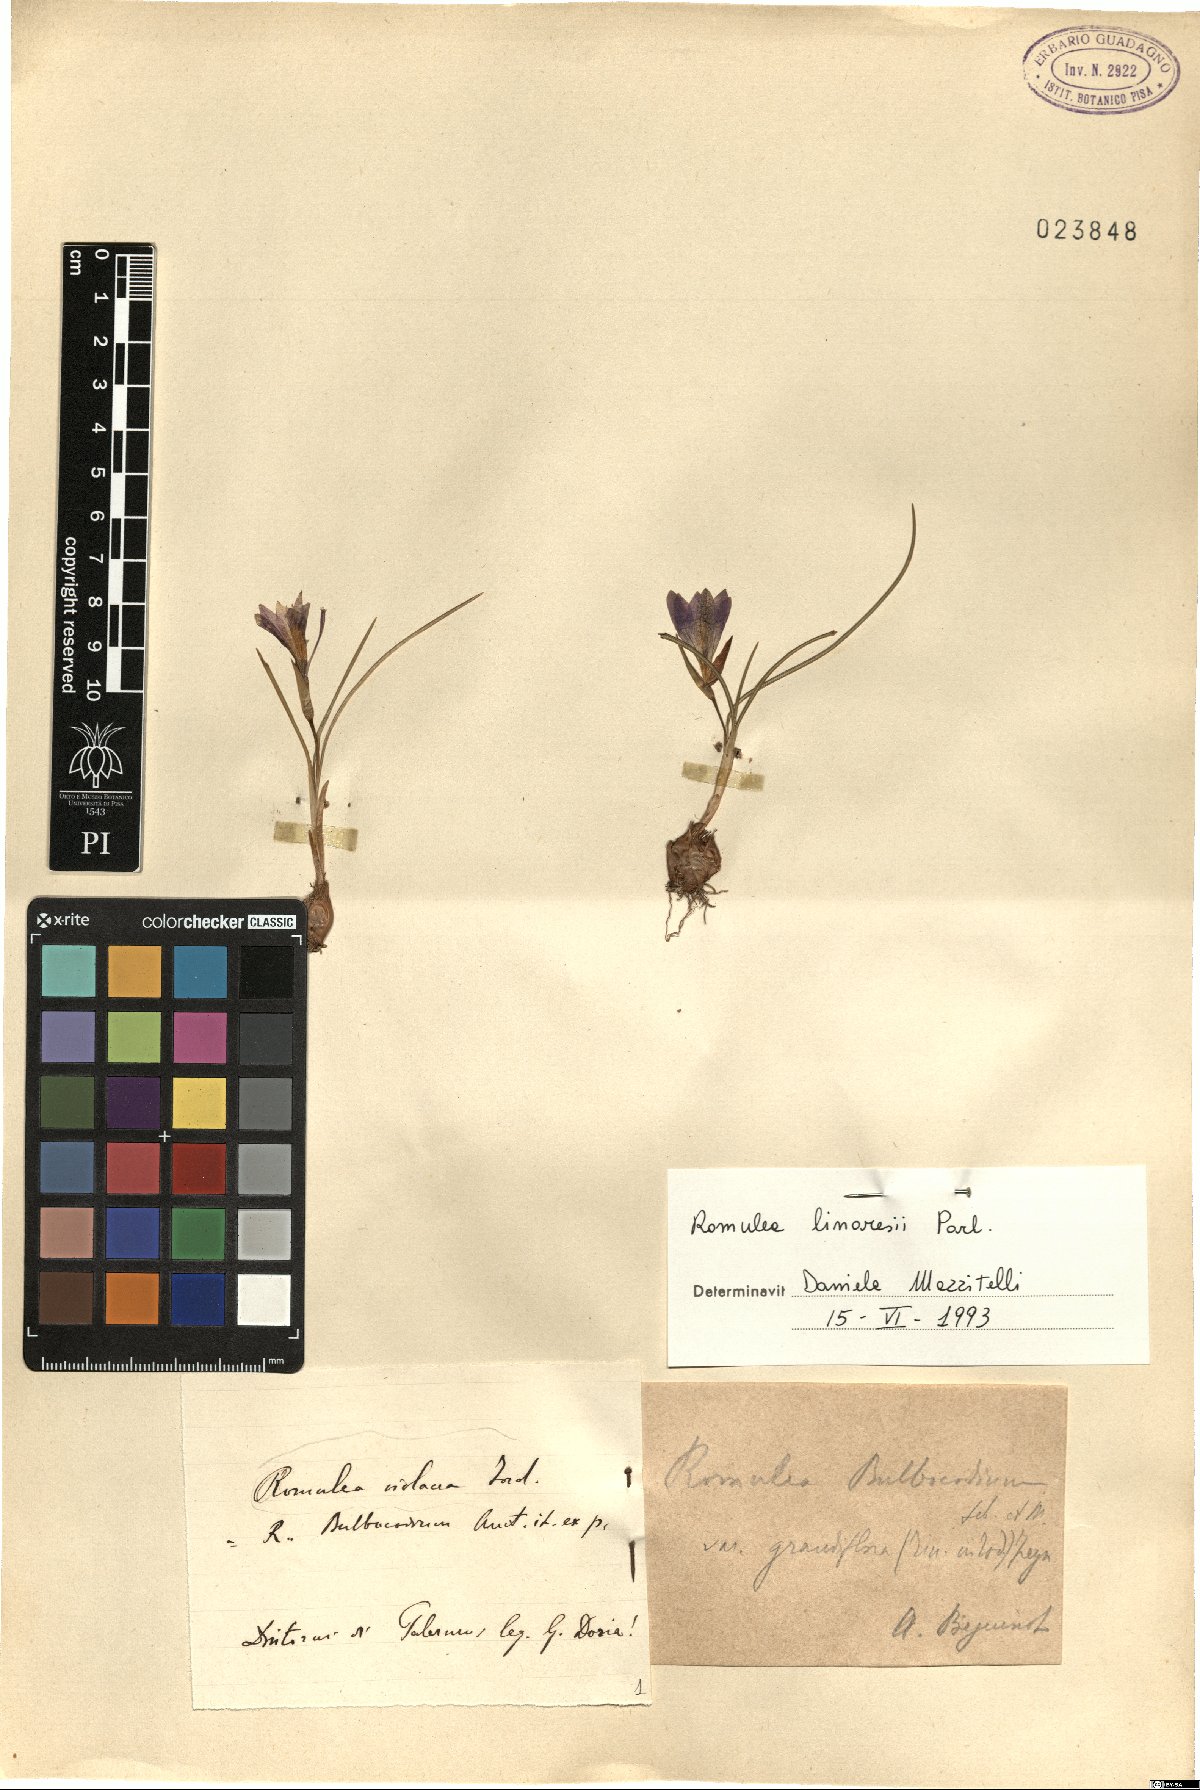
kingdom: Plantae
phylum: Tracheophyta
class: Liliopsida
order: Asparagales
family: Iridaceae
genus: Romulea
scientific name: Romulea linaresii
